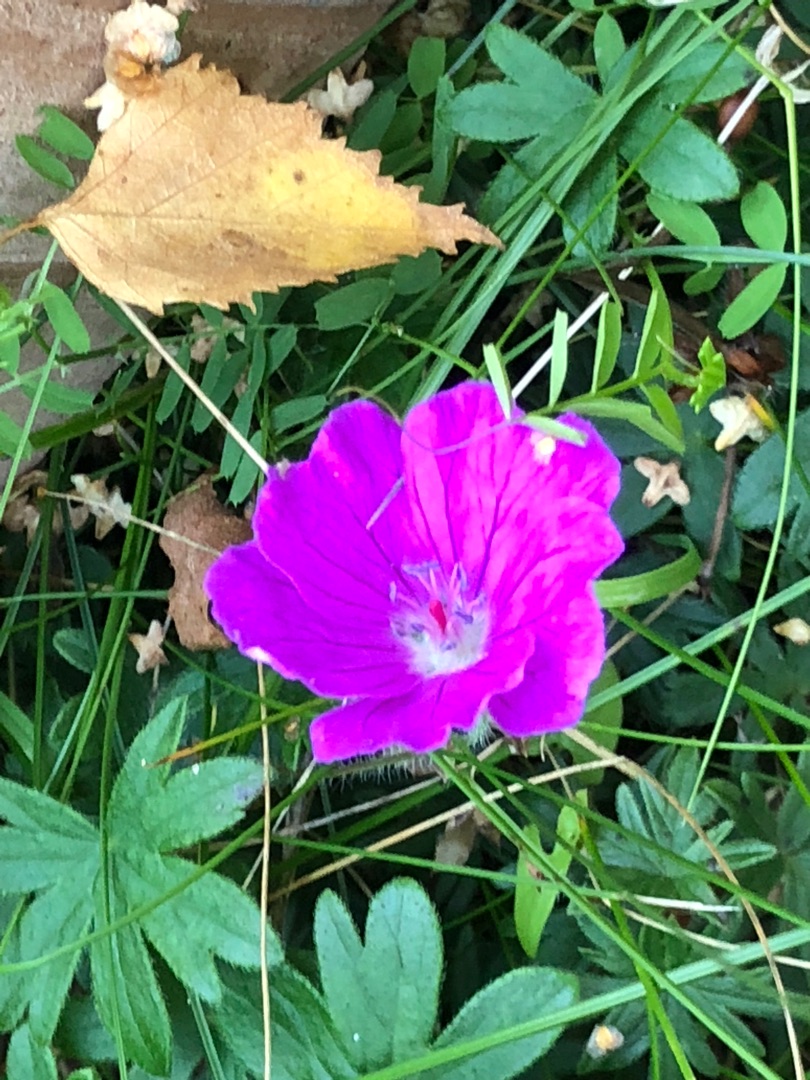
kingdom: Plantae
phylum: Tracheophyta
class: Magnoliopsida
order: Geraniales
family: Geraniaceae
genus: Geranium
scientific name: Geranium sanguineum
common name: Blodrød storkenæb
